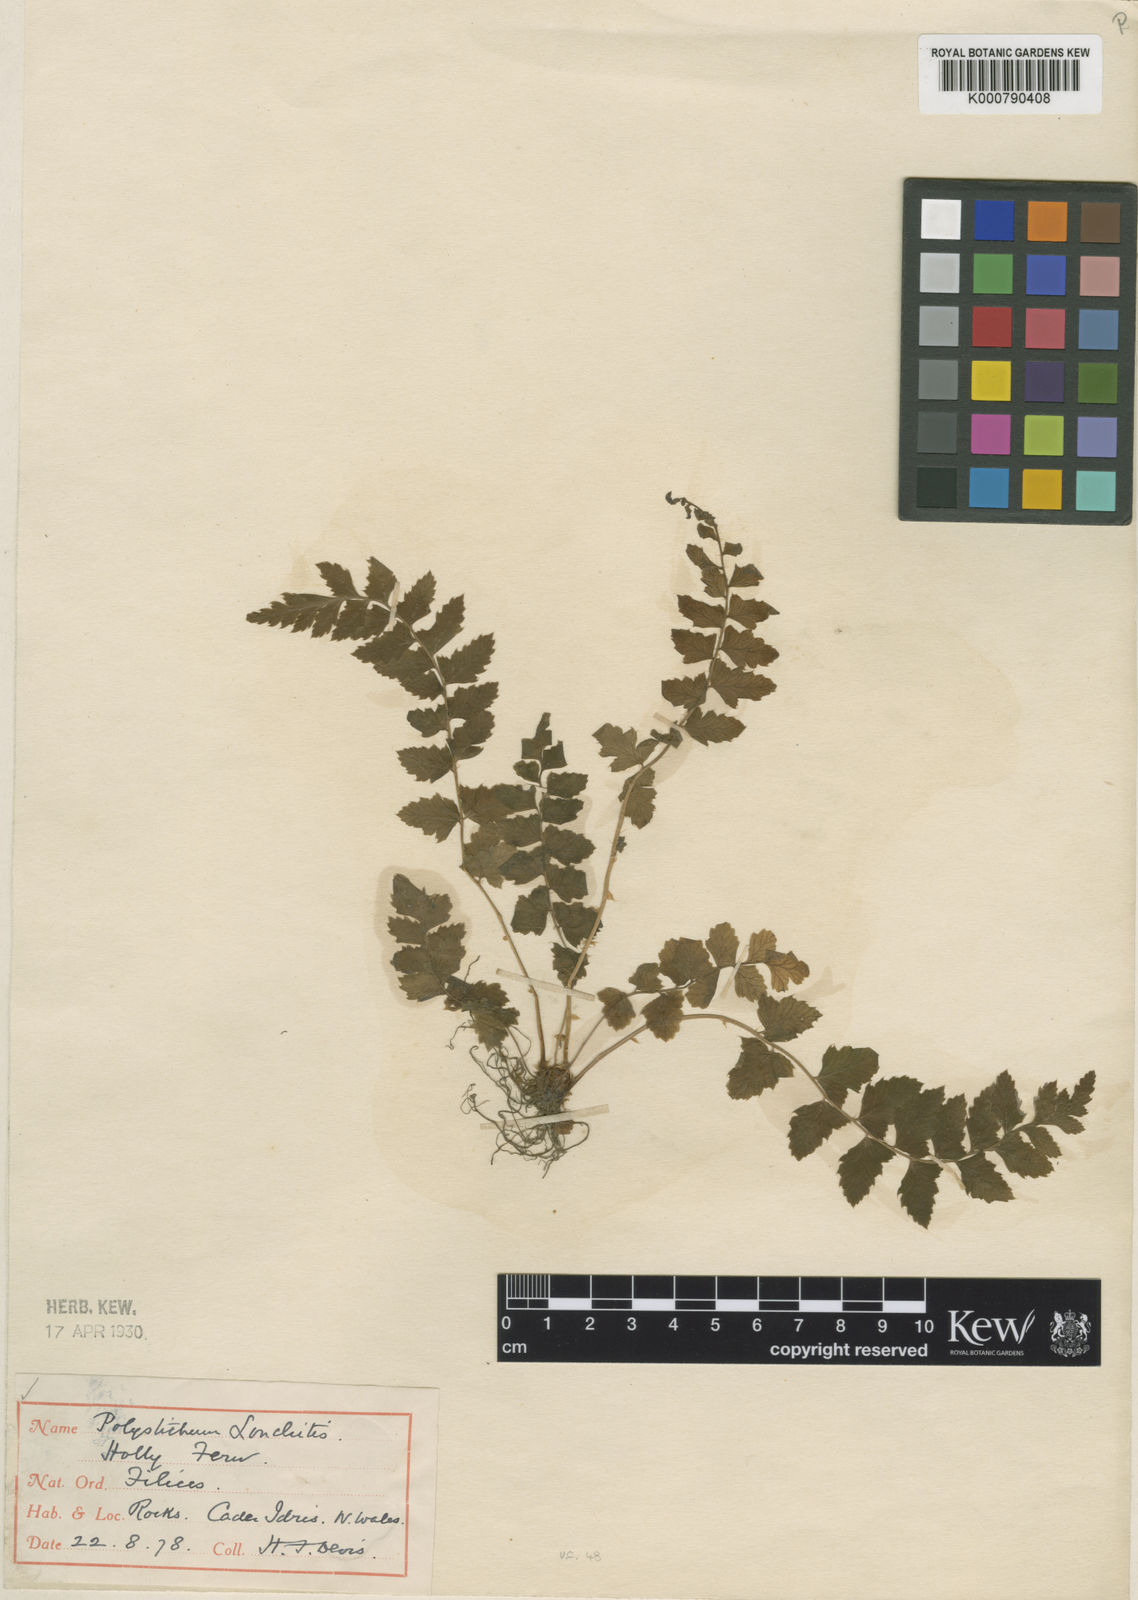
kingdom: Plantae
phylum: Tracheophyta
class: Polypodiopsida
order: Polypodiales
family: Dryopteridaceae
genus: Polystichum
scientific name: Polystichum lonchitis
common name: Holly fern
